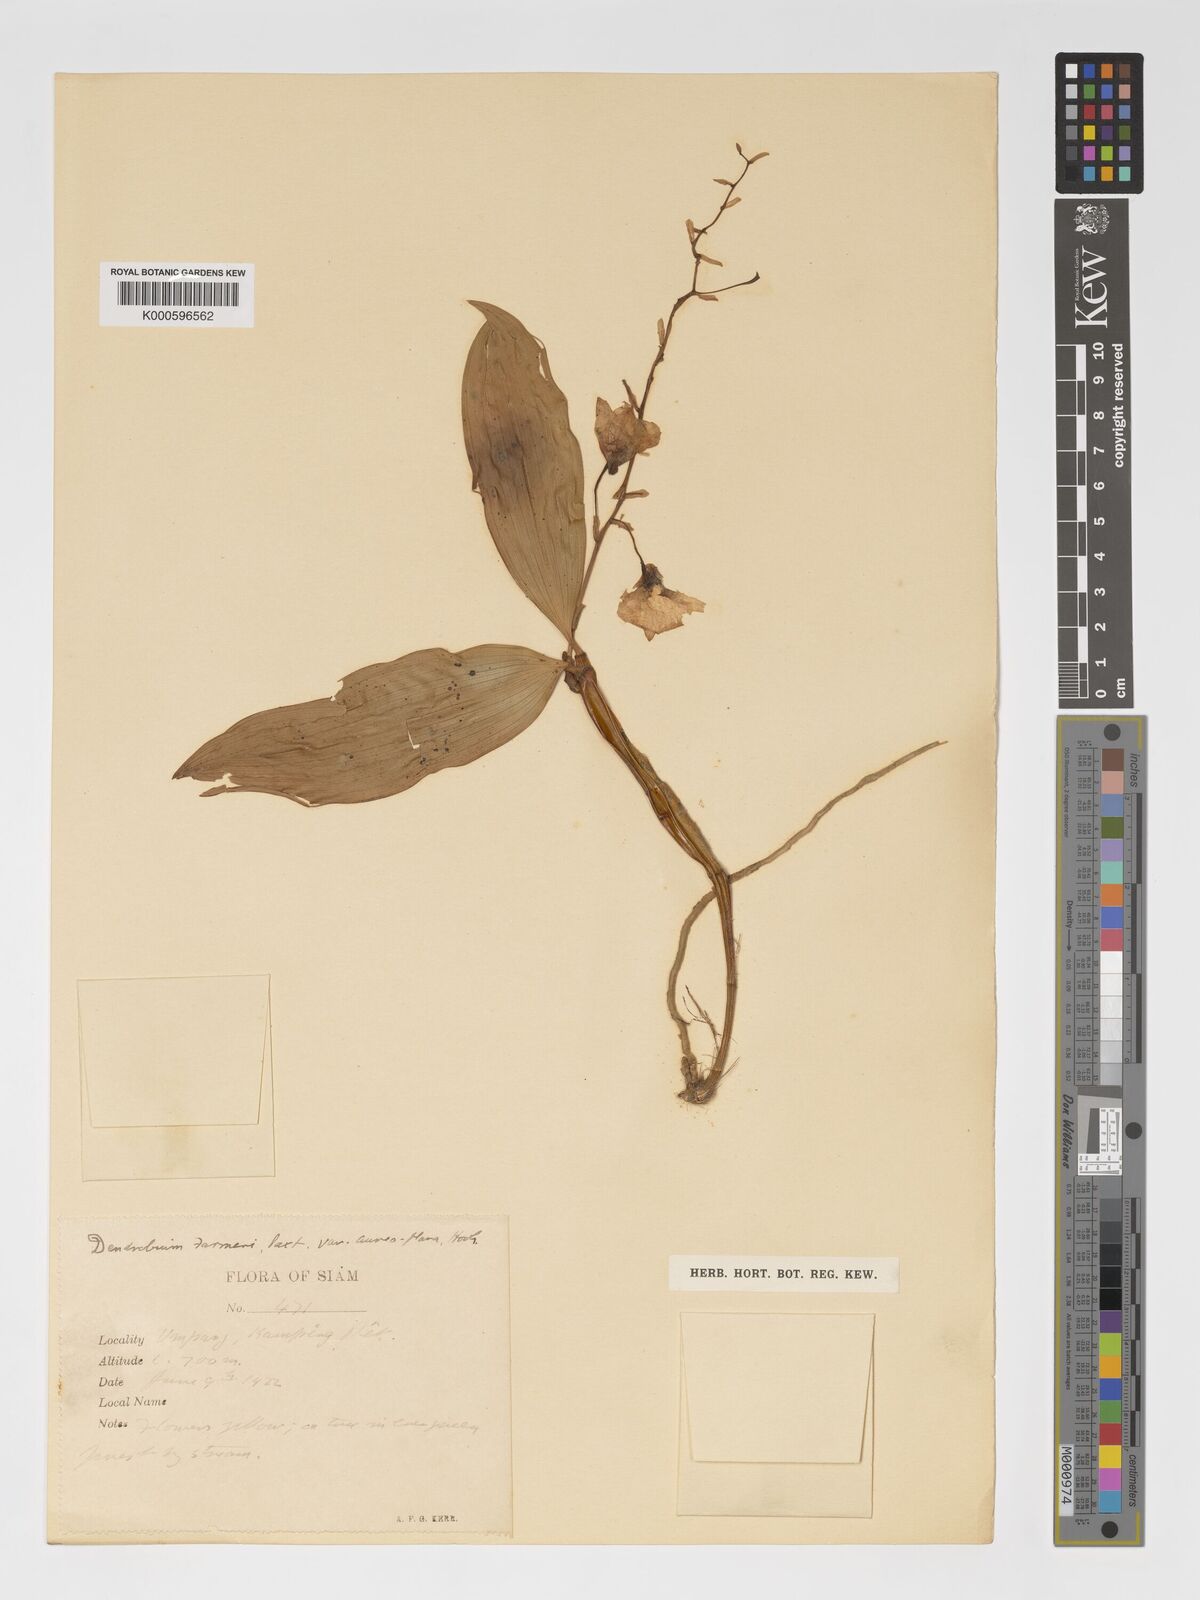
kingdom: Plantae
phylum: Tracheophyta
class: Liliopsida
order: Asparagales
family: Orchidaceae
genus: Dendrobium
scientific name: Dendrobium farmeri
